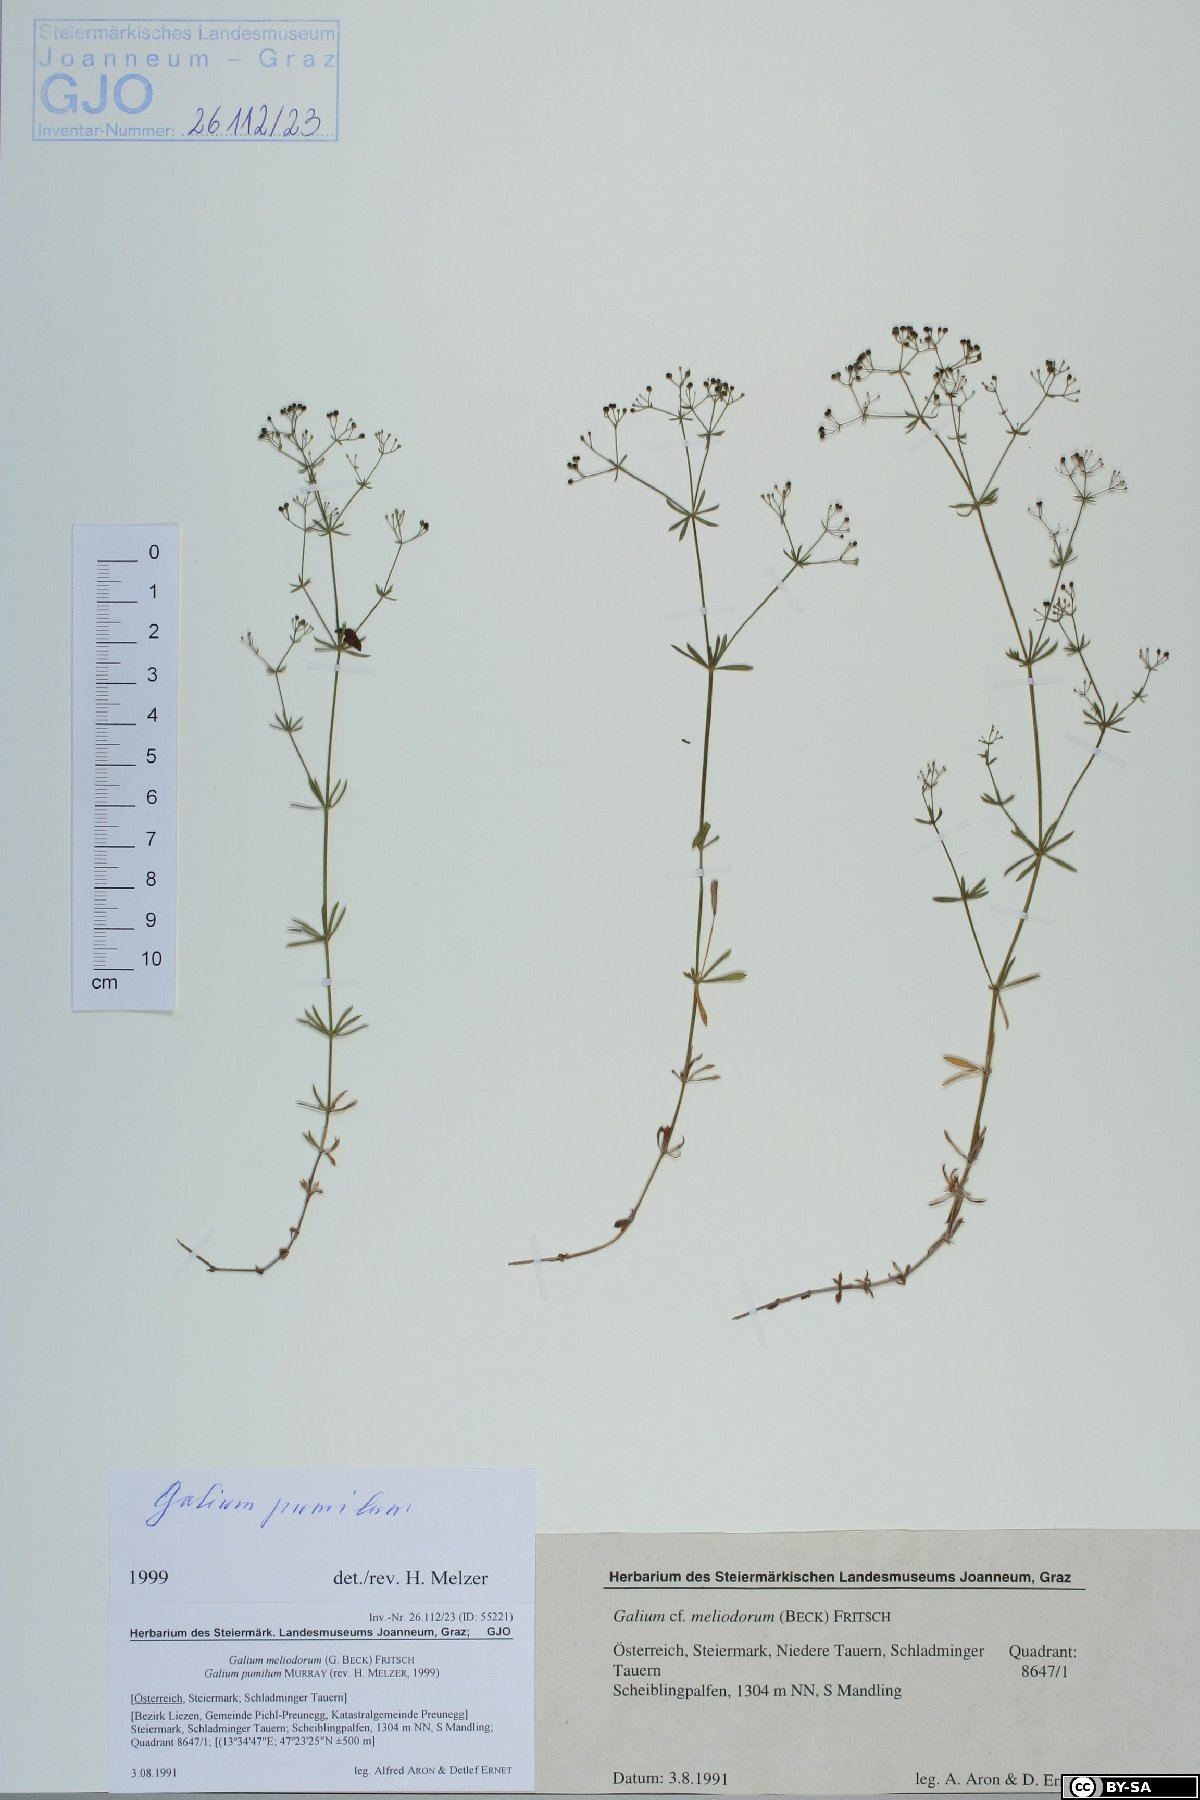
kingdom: Plantae
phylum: Tracheophyta
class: Magnoliopsida
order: Gentianales
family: Rubiaceae
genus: Galium
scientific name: Galium pumilum
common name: Slender bedstraw
